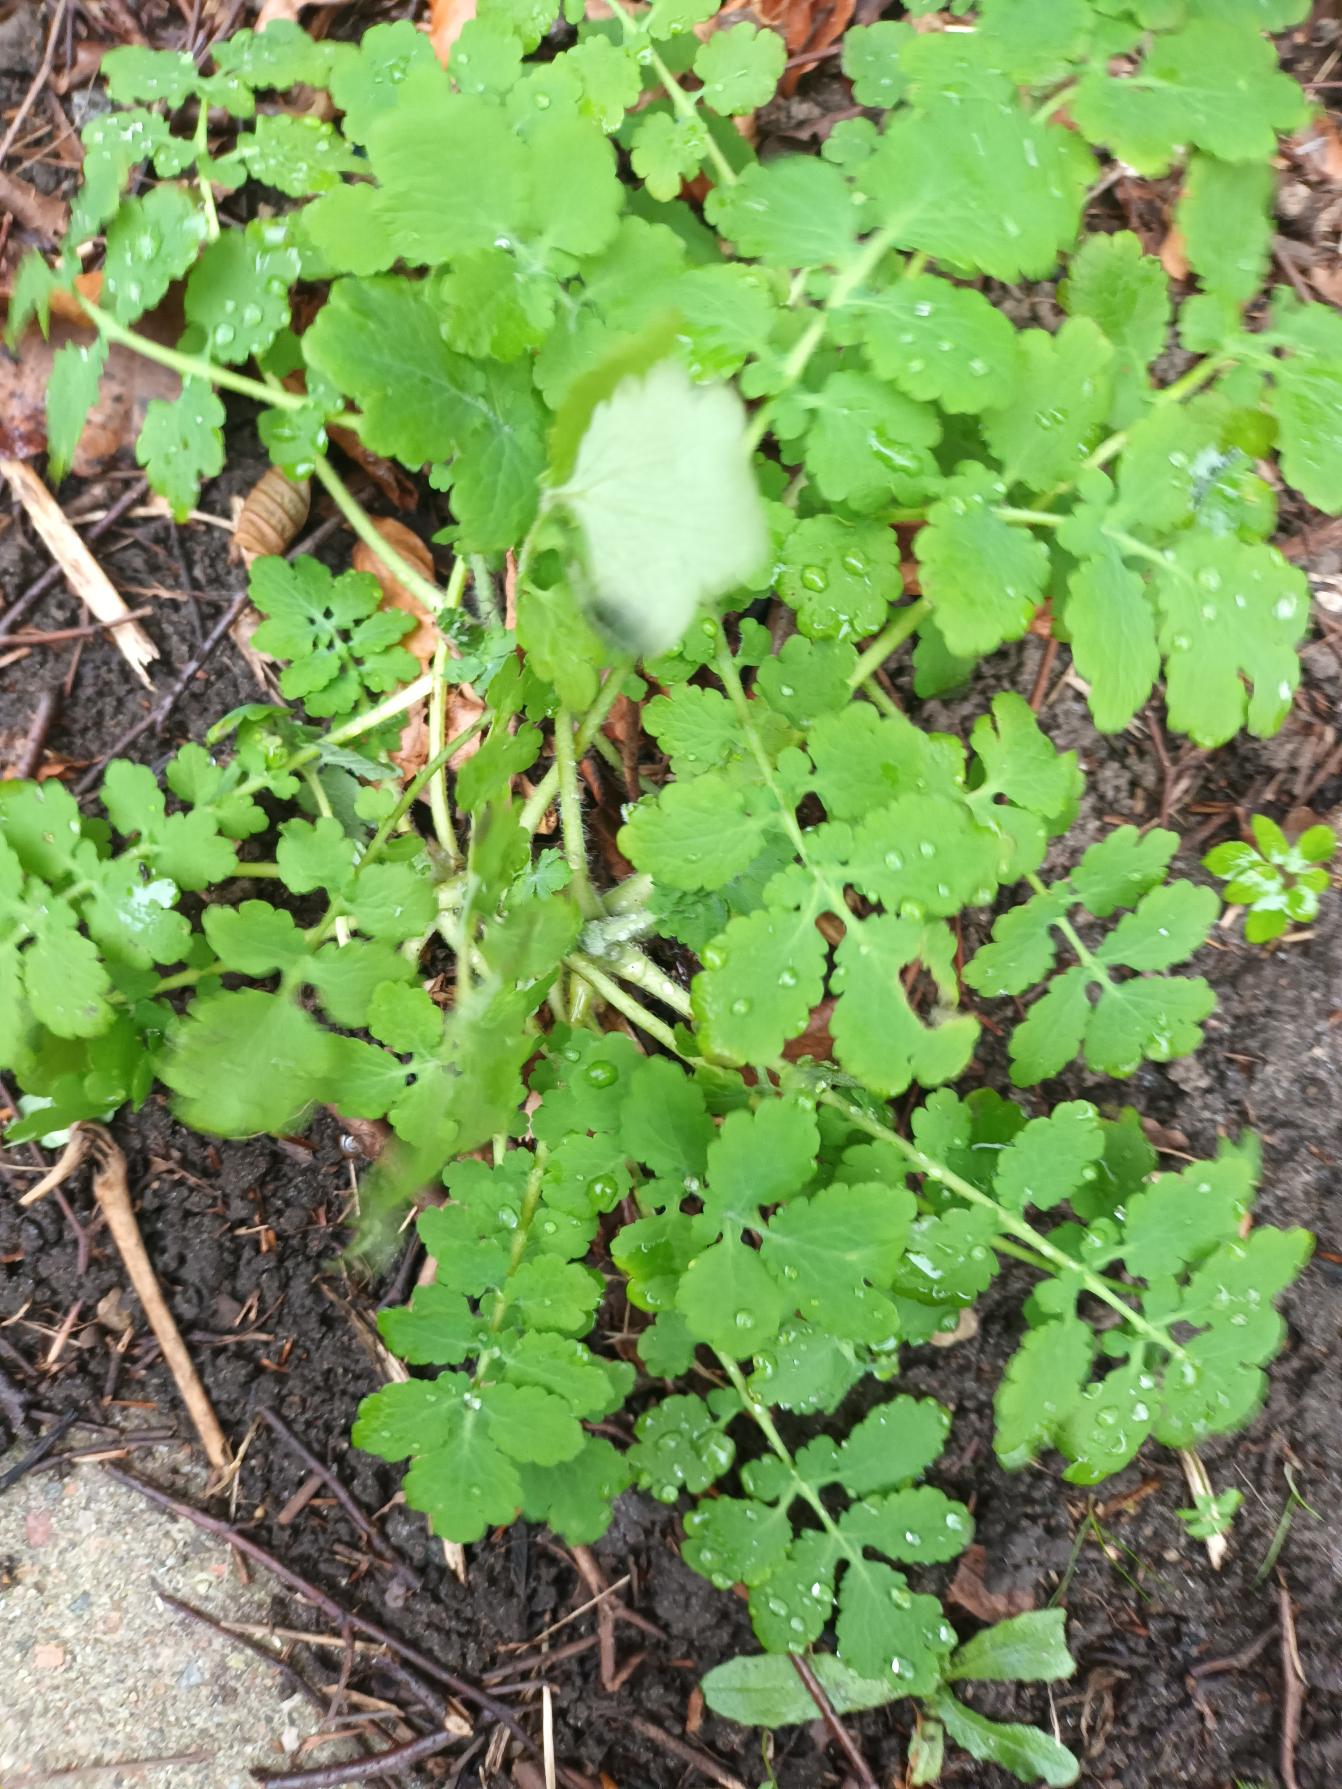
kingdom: Plantae
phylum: Tracheophyta
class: Magnoliopsida
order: Ranunculales
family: Papaveraceae
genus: Chelidonium
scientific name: Chelidonium majus
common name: Svaleurt
